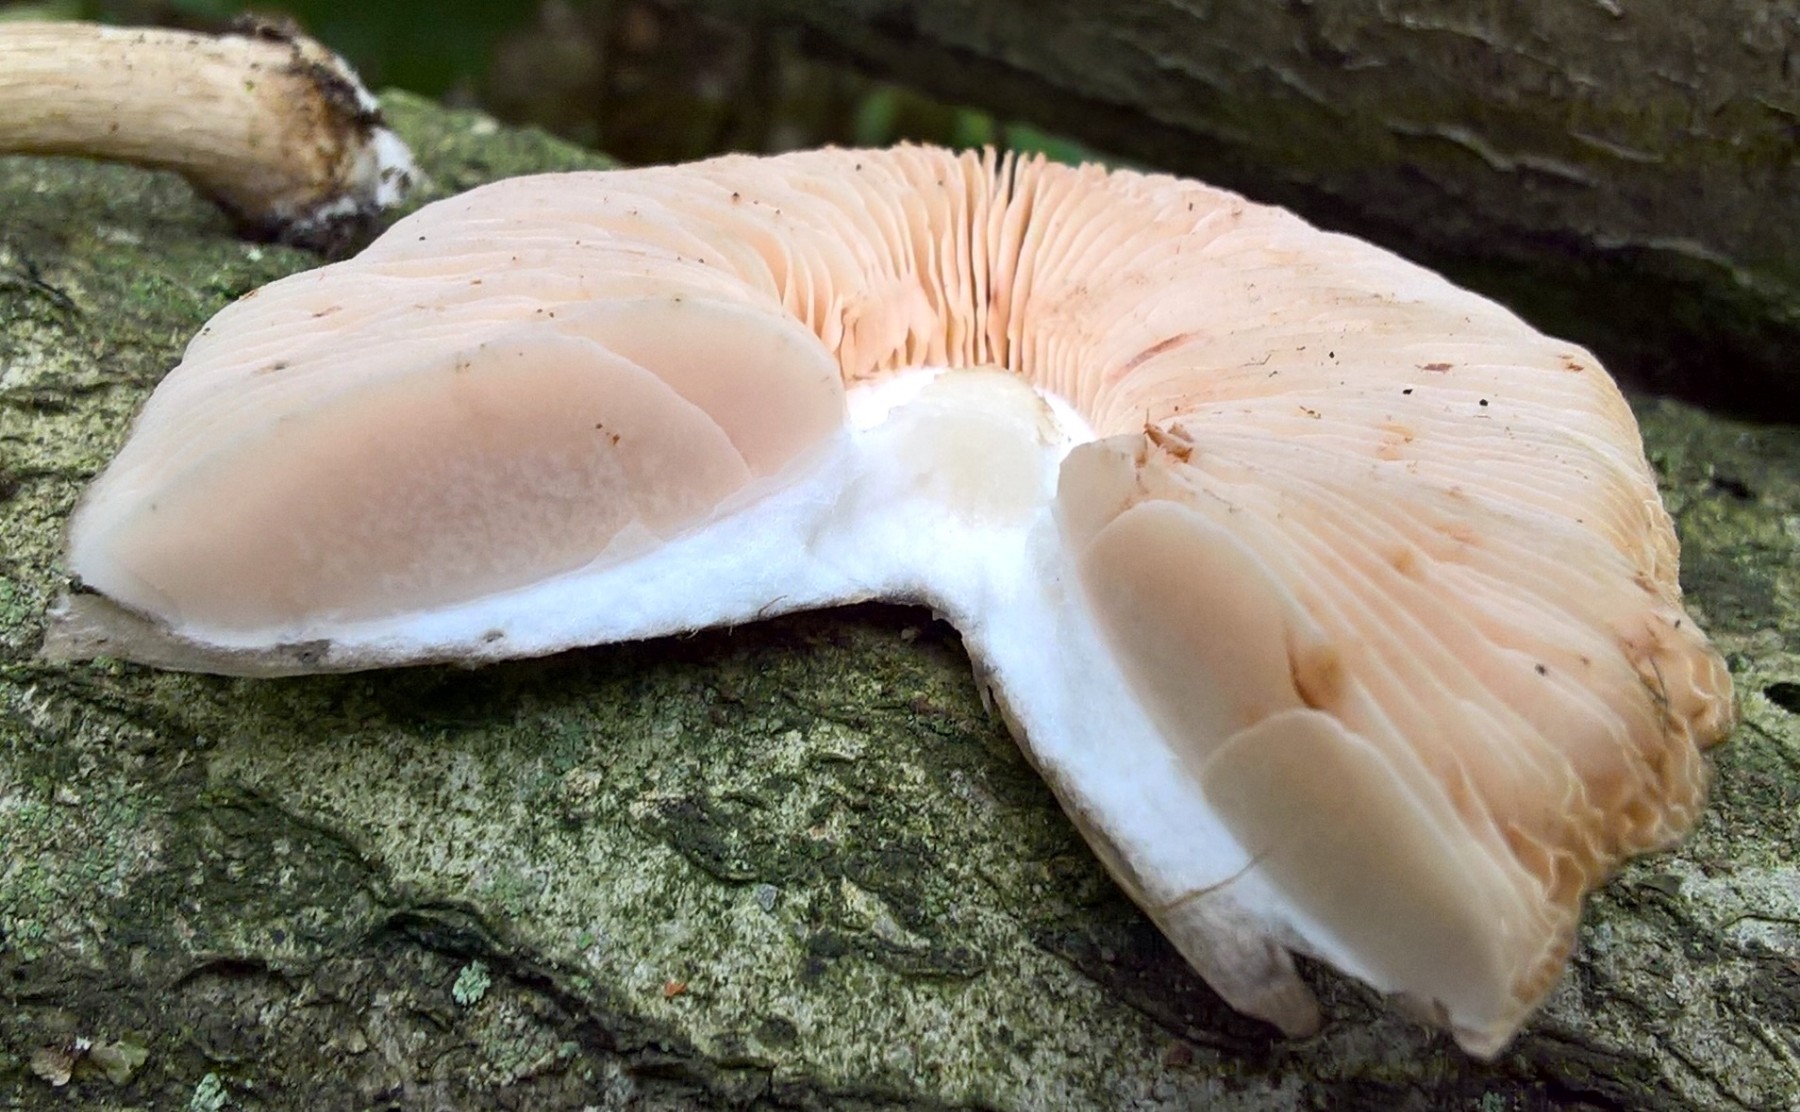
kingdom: Fungi
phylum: Basidiomycota
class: Agaricomycetes
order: Agaricales
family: Pluteaceae
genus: Pluteus
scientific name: Pluteus cervinus
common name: sodfarvet skærmhat
